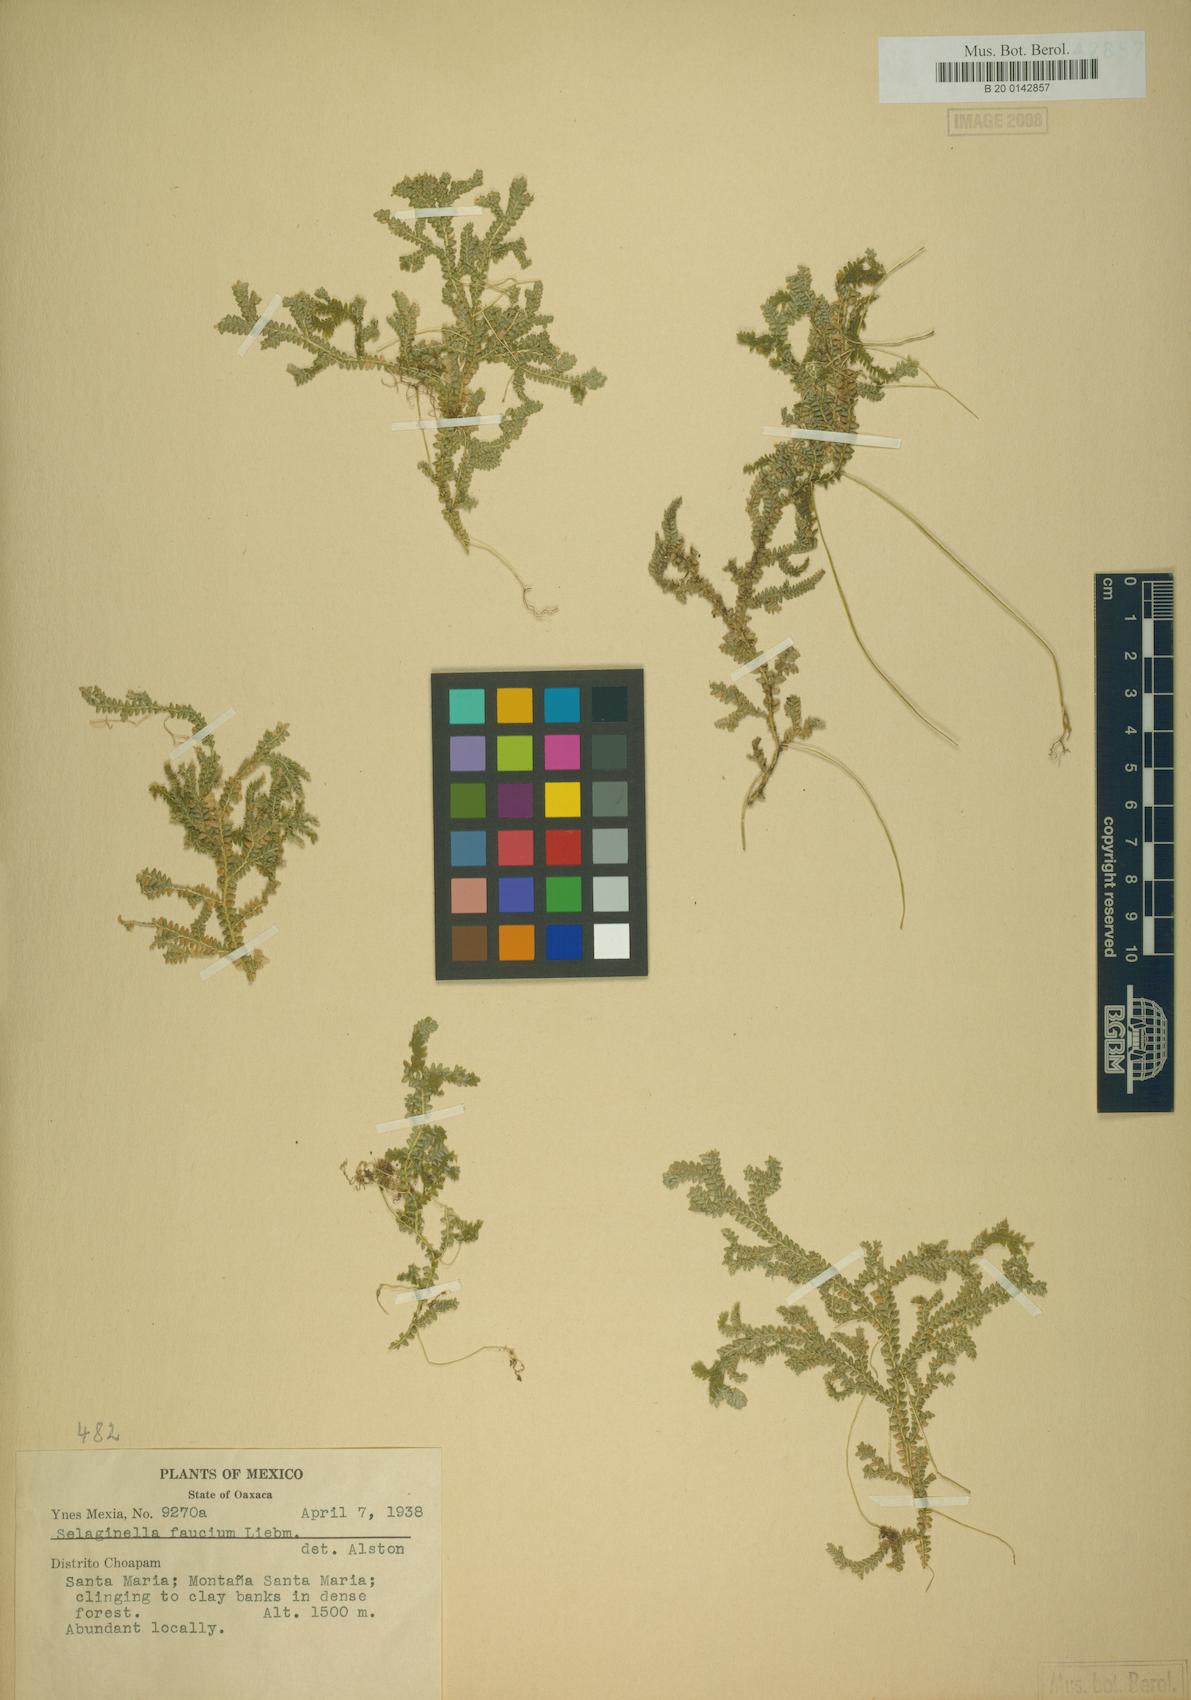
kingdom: Plantae
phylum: Tracheophyta
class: Lycopodiopsida
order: Selaginellales
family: Selaginellaceae
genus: Selaginella
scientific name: Selaginella flexuosa
